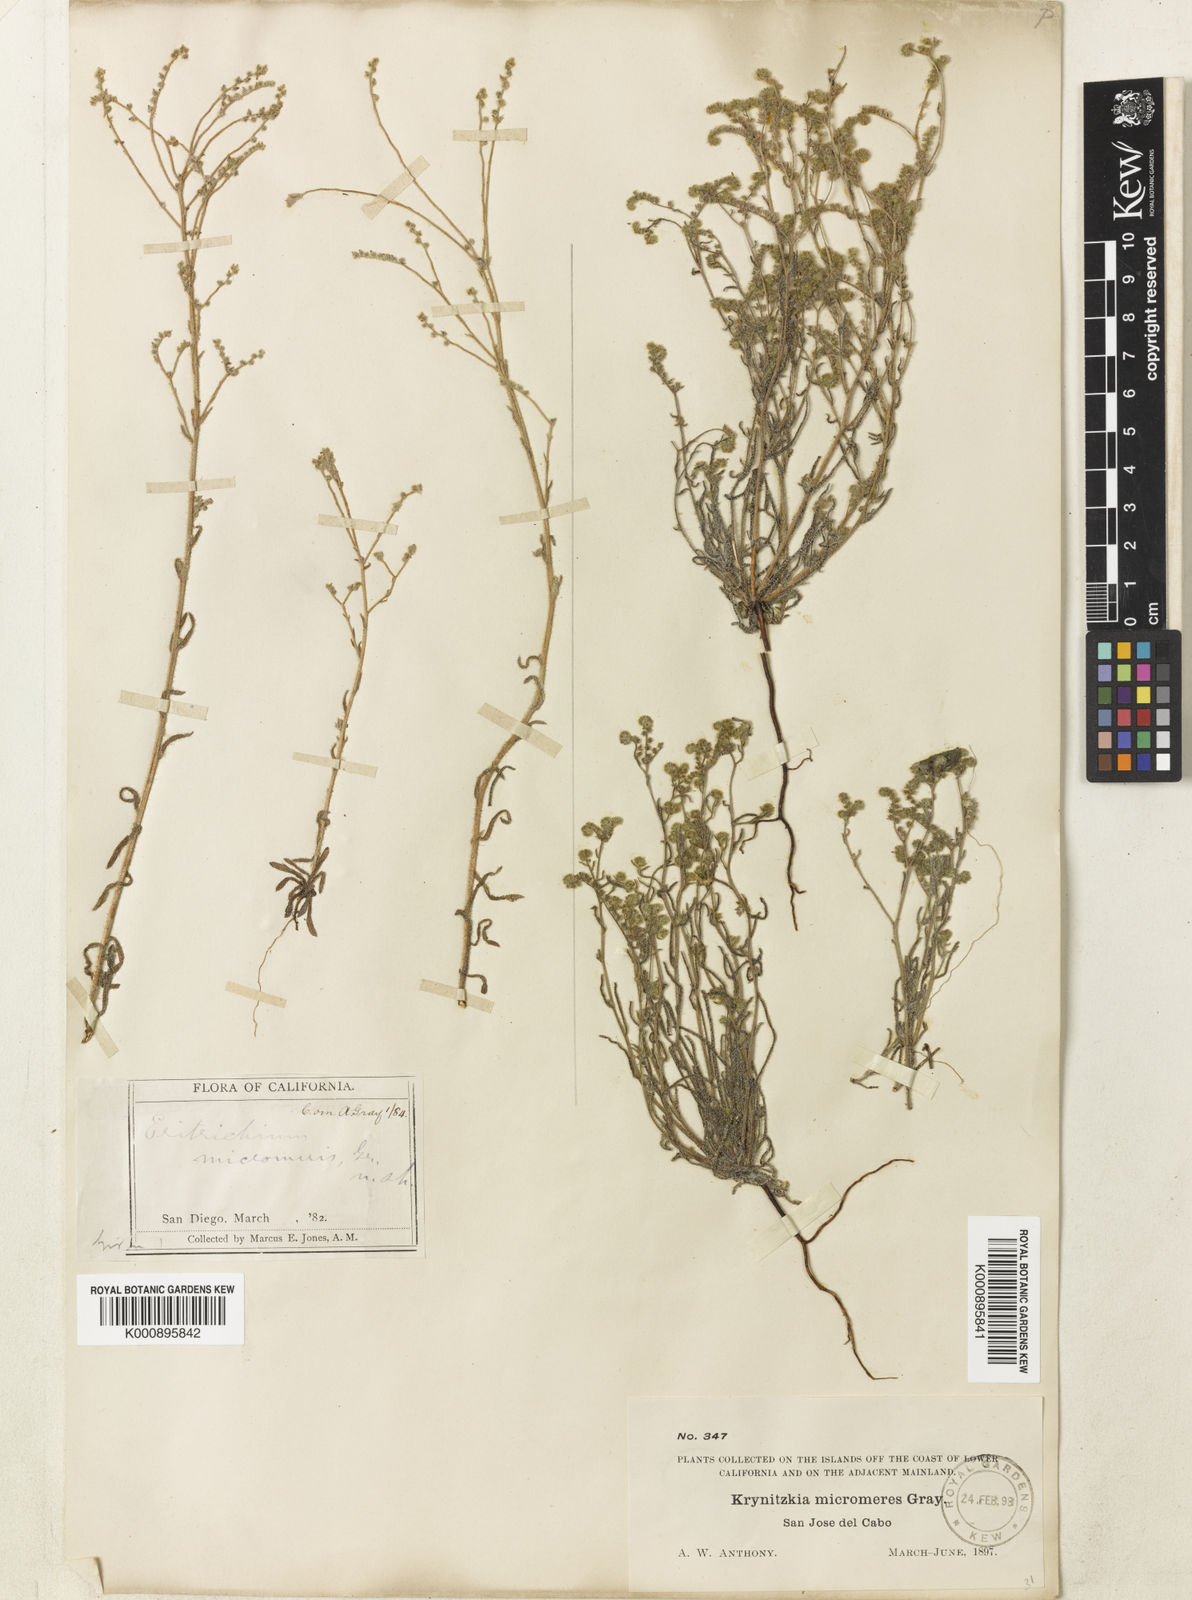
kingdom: Plantae
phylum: Tracheophyta
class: Magnoliopsida
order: Boraginales
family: Boraginaceae
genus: Johnstonella
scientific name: Johnstonella micromeres
